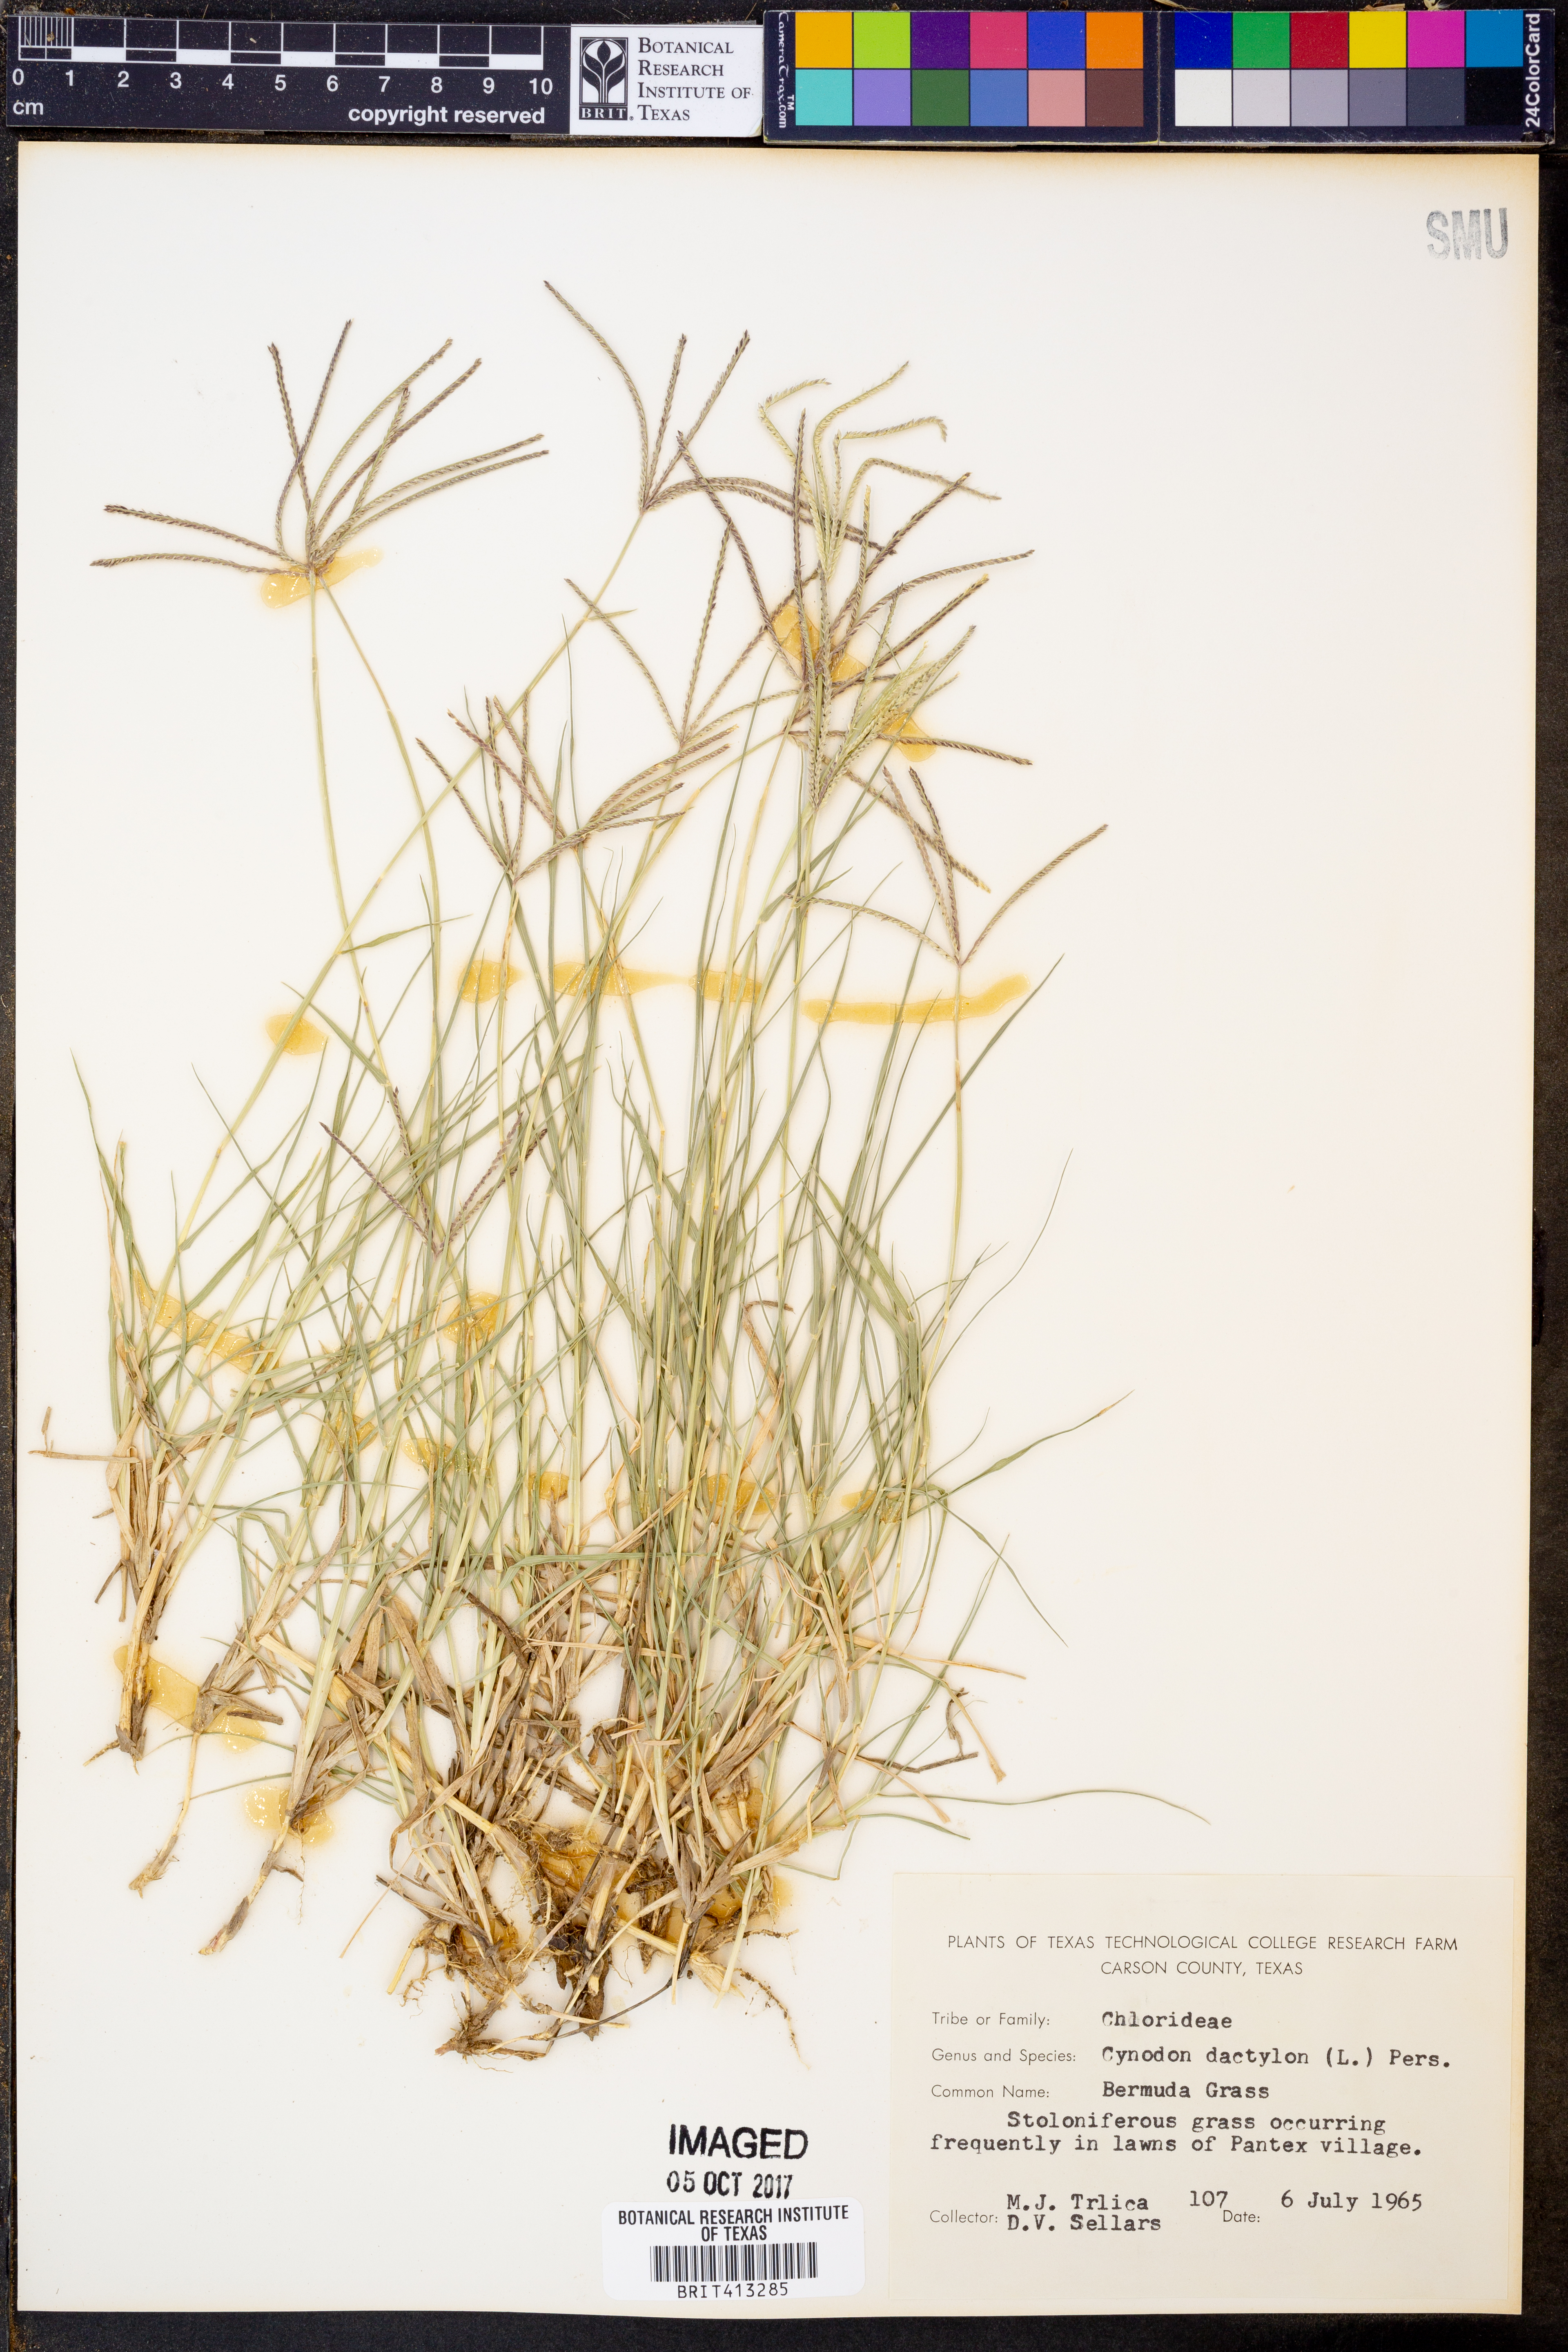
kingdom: Plantae
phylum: Tracheophyta
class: Liliopsida
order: Poales
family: Poaceae
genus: Cynodon
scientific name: Cynodon dactylon
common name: Bermuda grass
